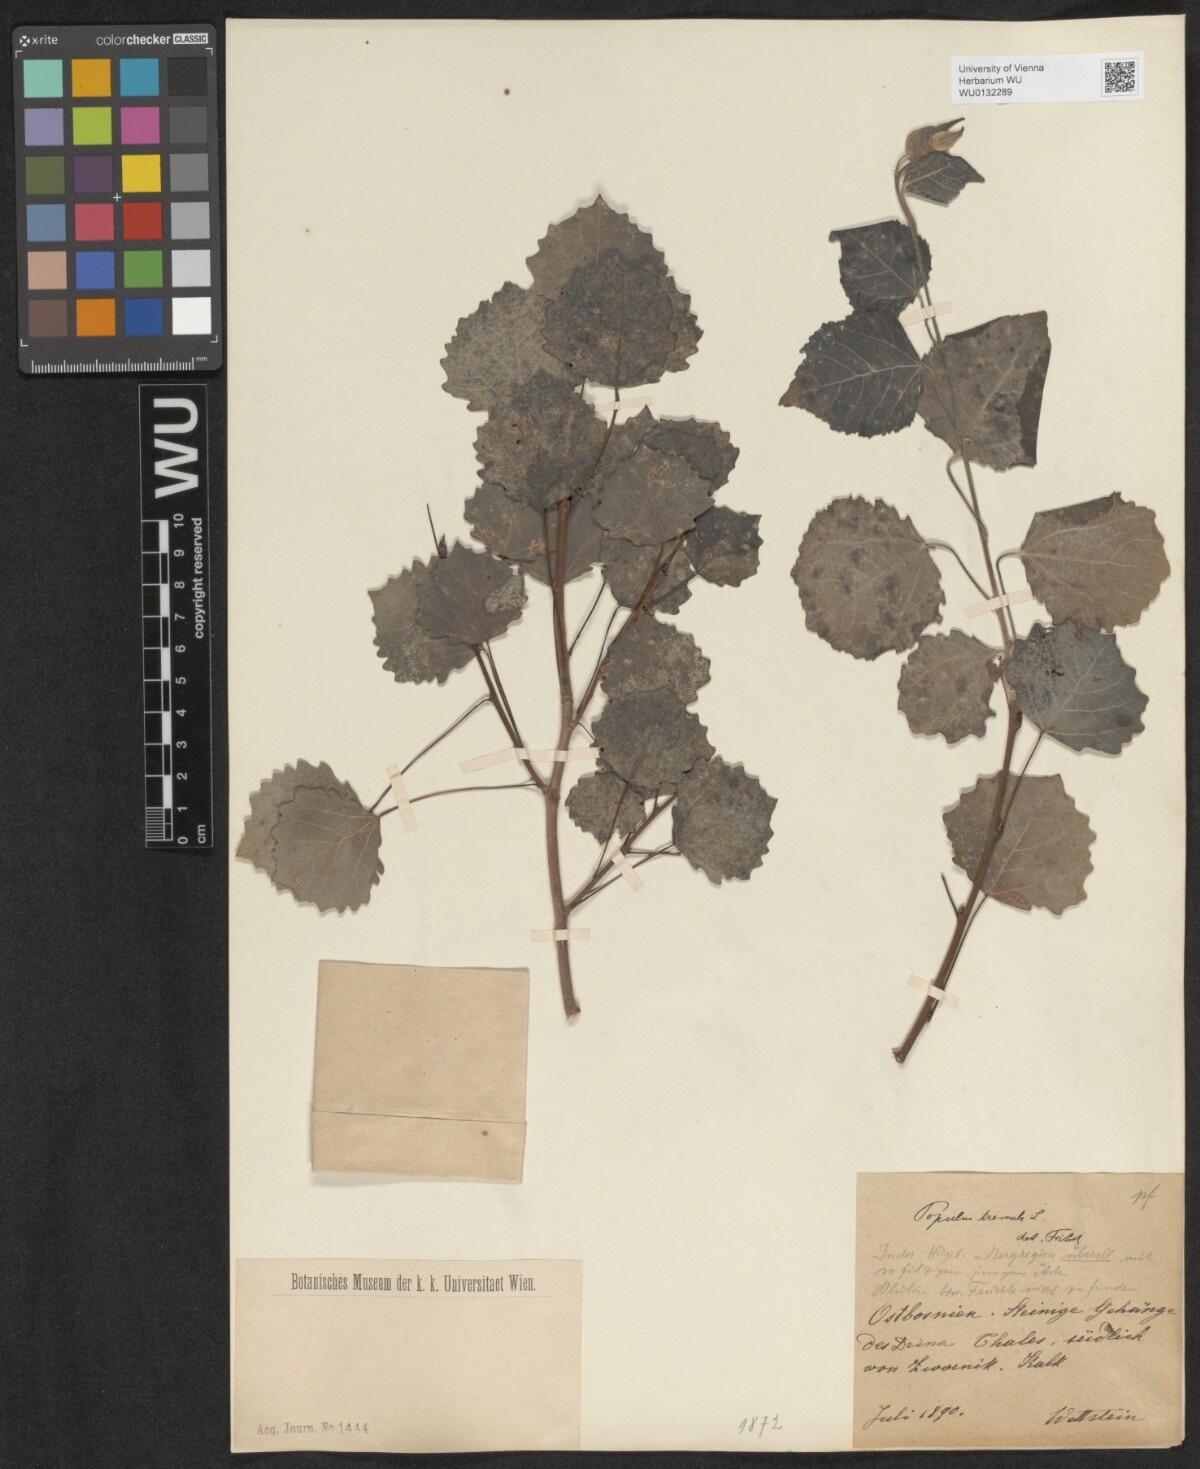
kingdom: Plantae
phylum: Tracheophyta
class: Magnoliopsida
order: Malpighiales
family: Salicaceae
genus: Populus
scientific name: Populus tremula
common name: European aspen
